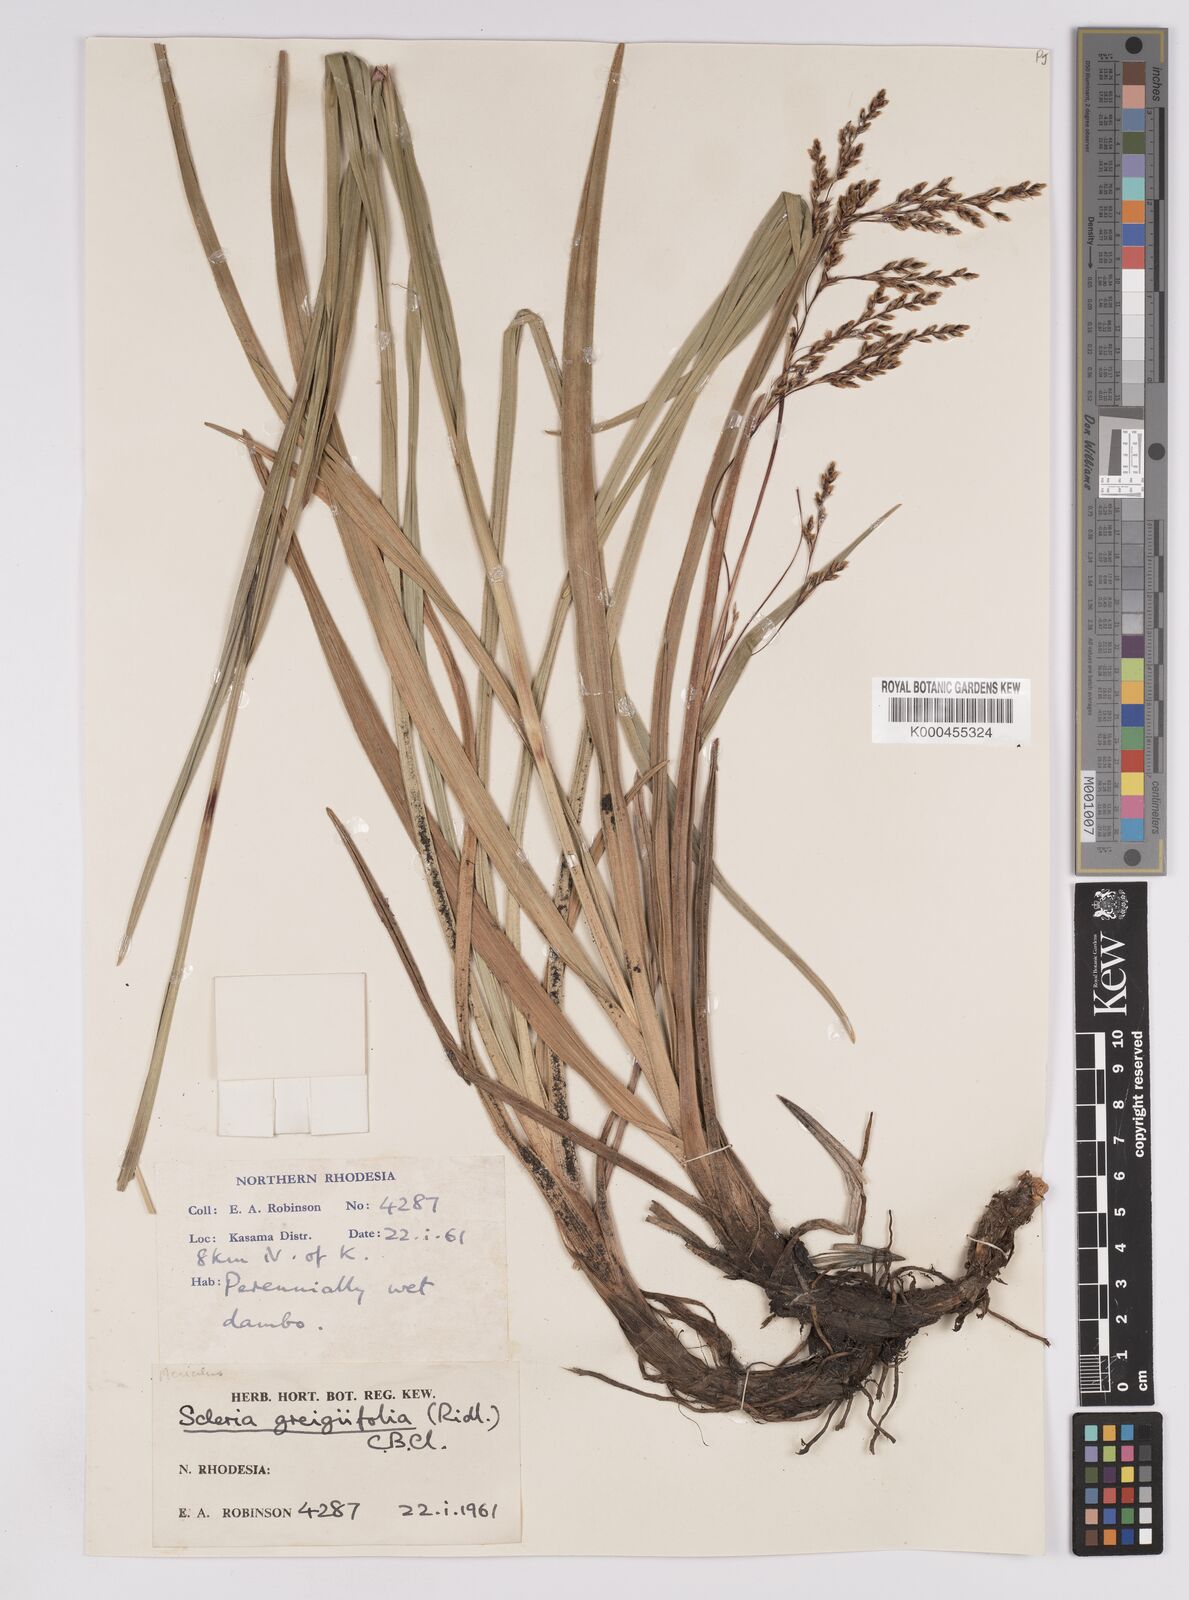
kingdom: Plantae
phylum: Tracheophyta
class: Liliopsida
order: Poales
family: Cyperaceae
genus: Scleria
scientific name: Scleria greigiifolia
